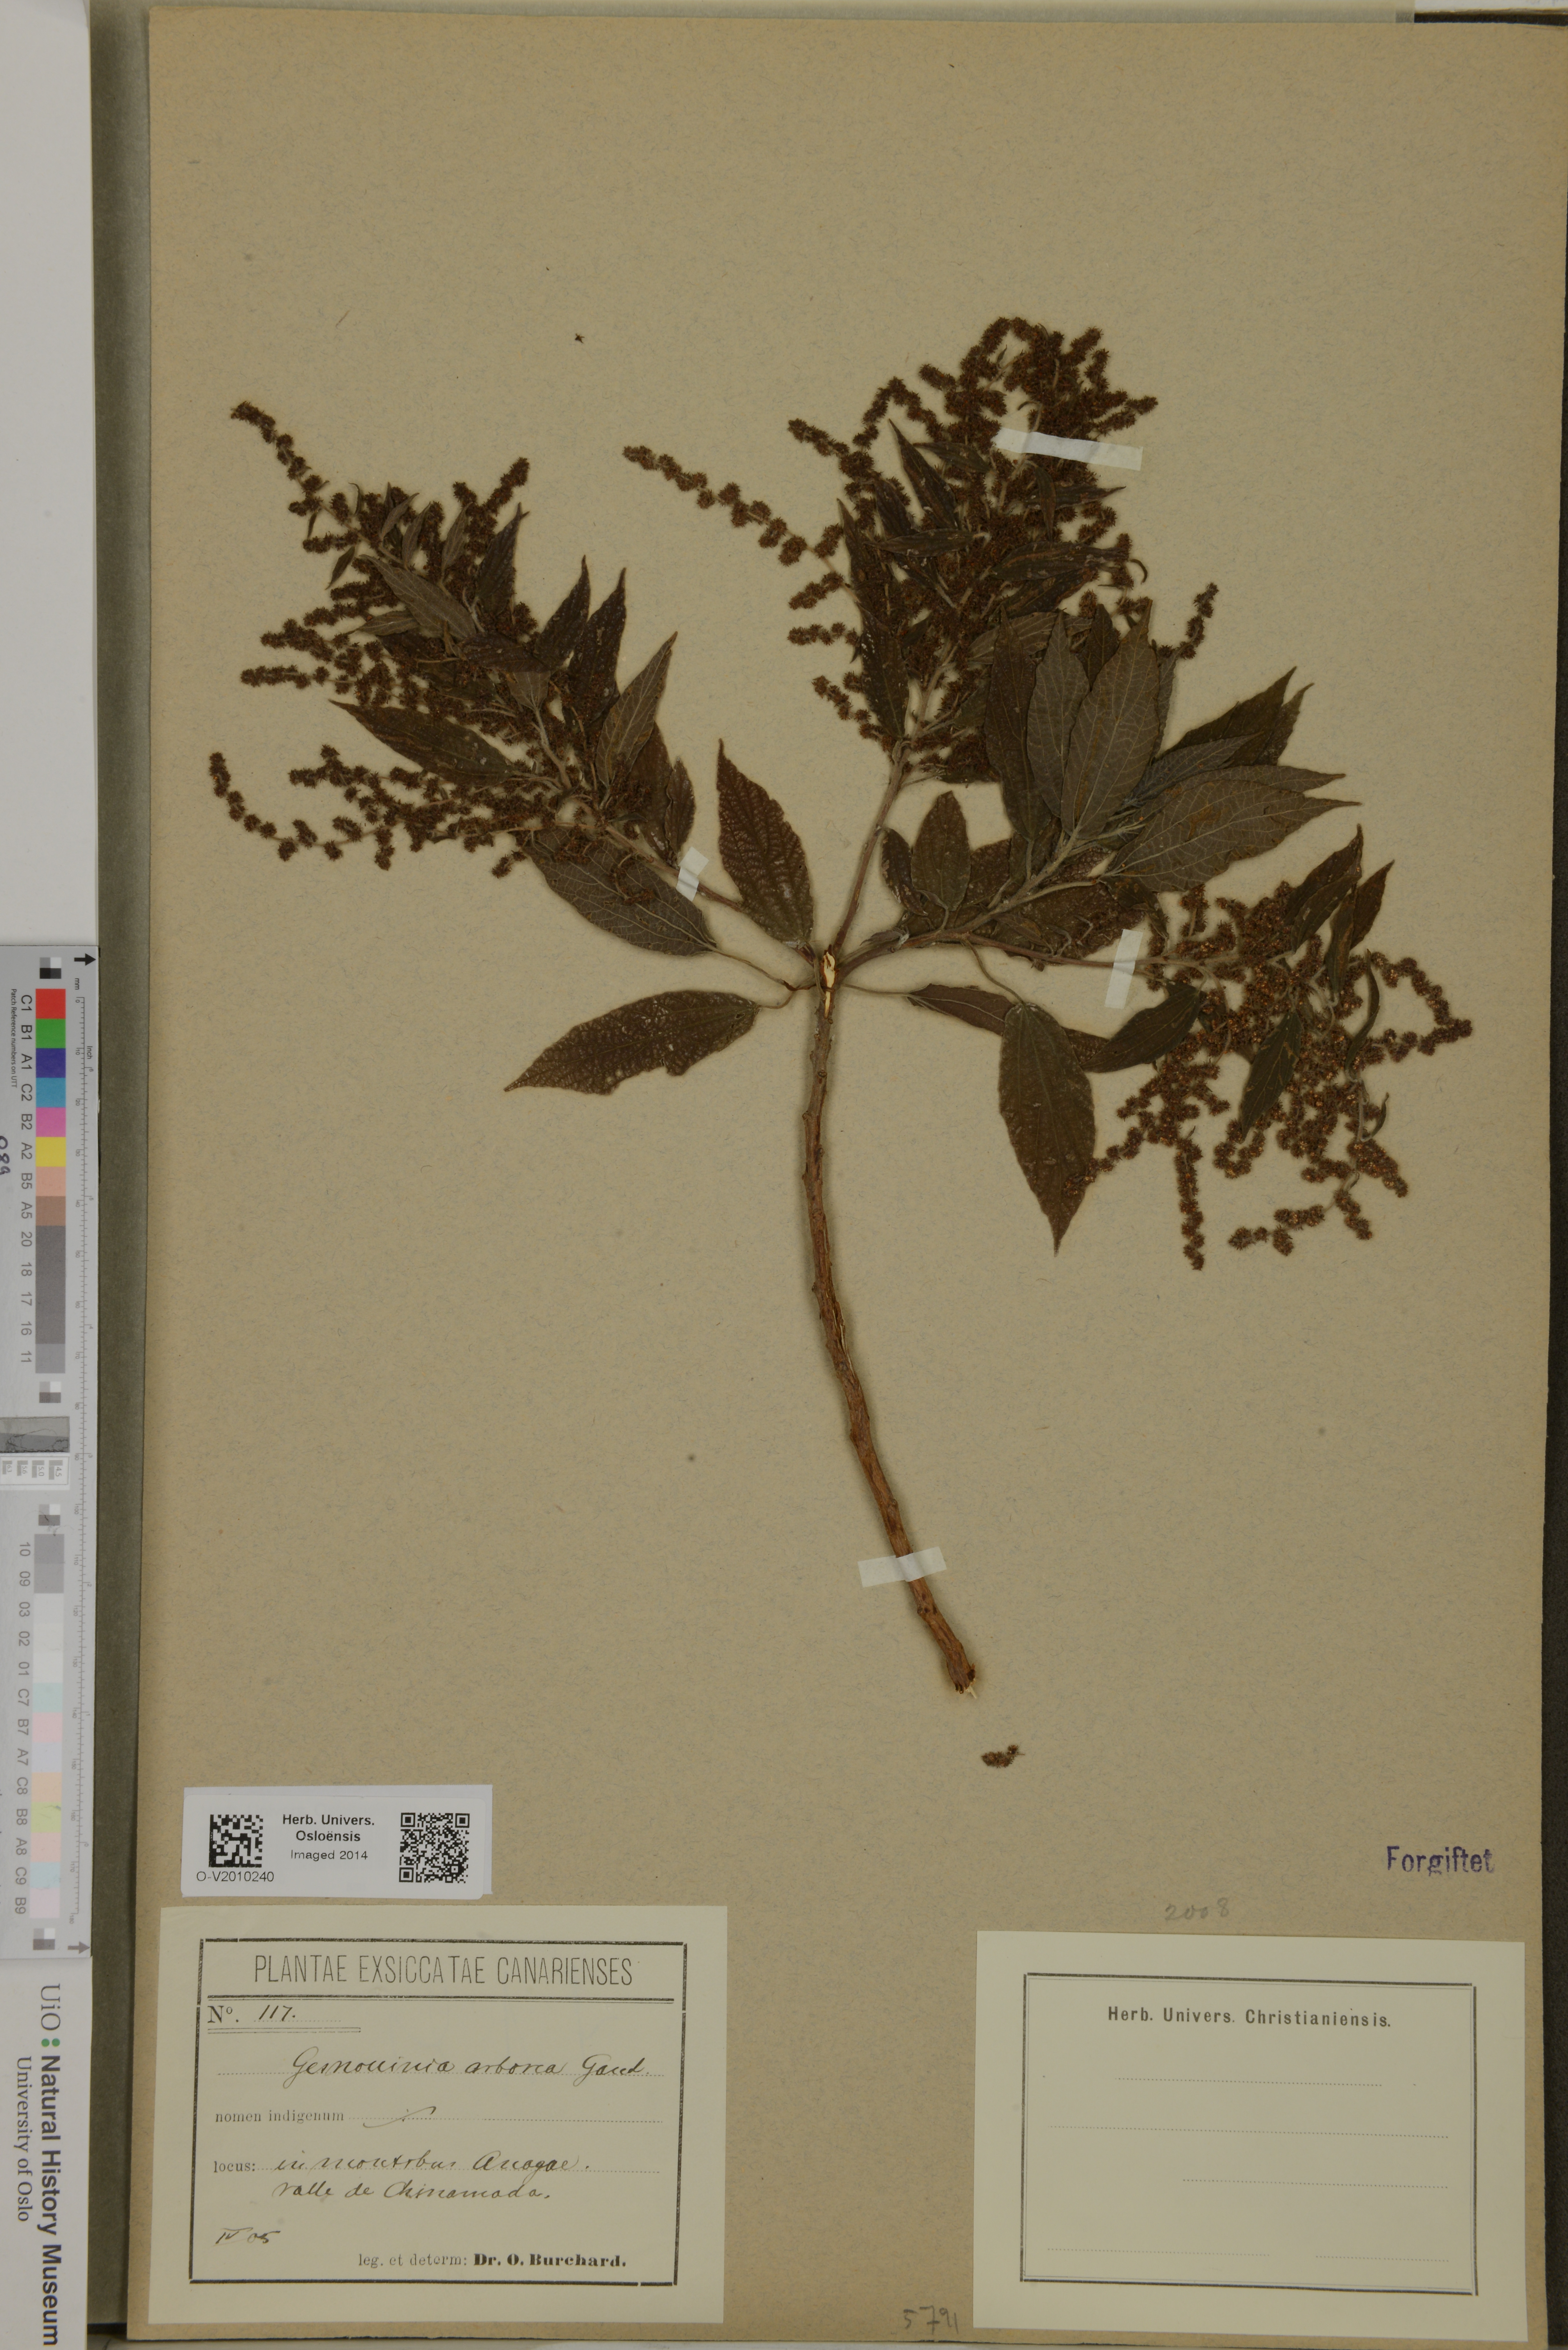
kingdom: Plantae
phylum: Tracheophyta
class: Magnoliopsida
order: Rosales
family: Urticaceae
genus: Gesnouinia
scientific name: Gesnouinia arborea
